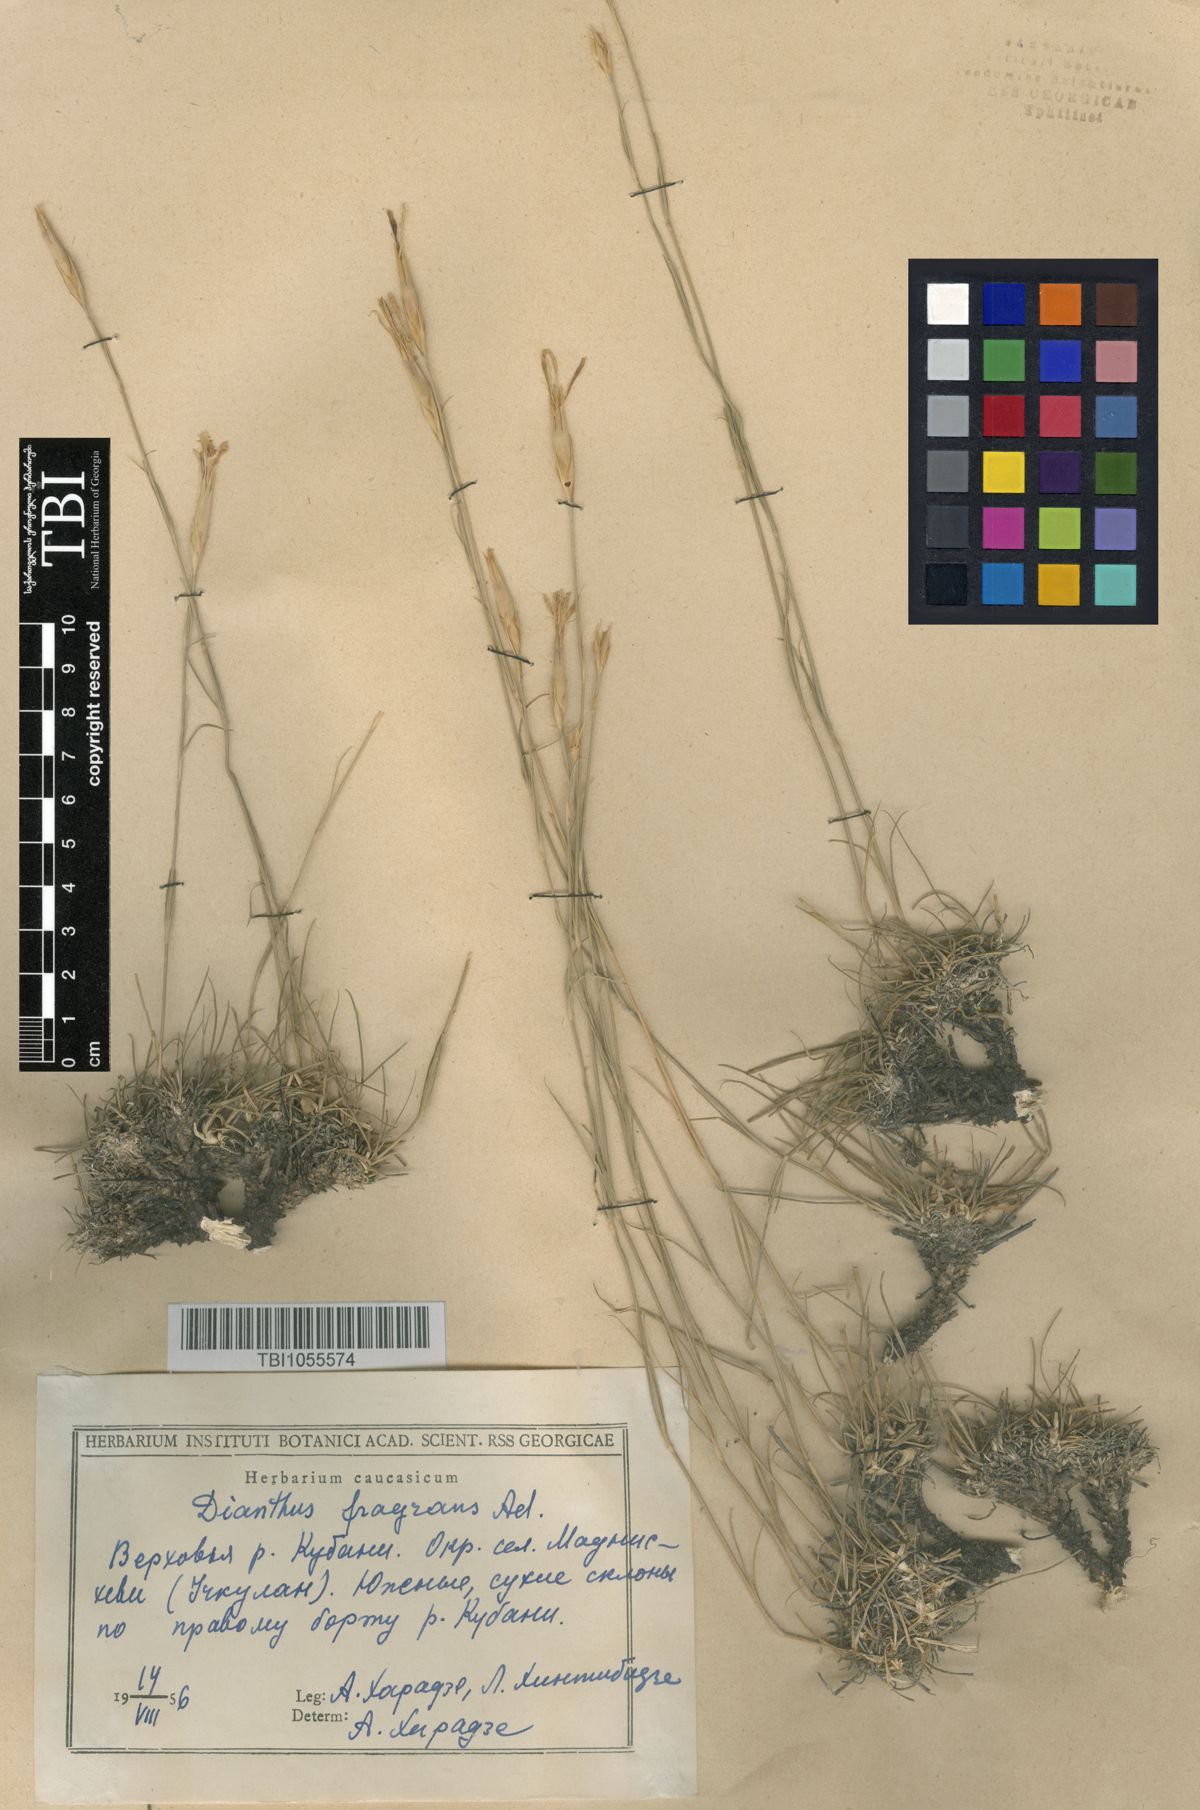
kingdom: Plantae
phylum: Tracheophyta
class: Magnoliopsida
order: Caryophyllales
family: Caryophyllaceae
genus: Dianthus
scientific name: Dianthus
